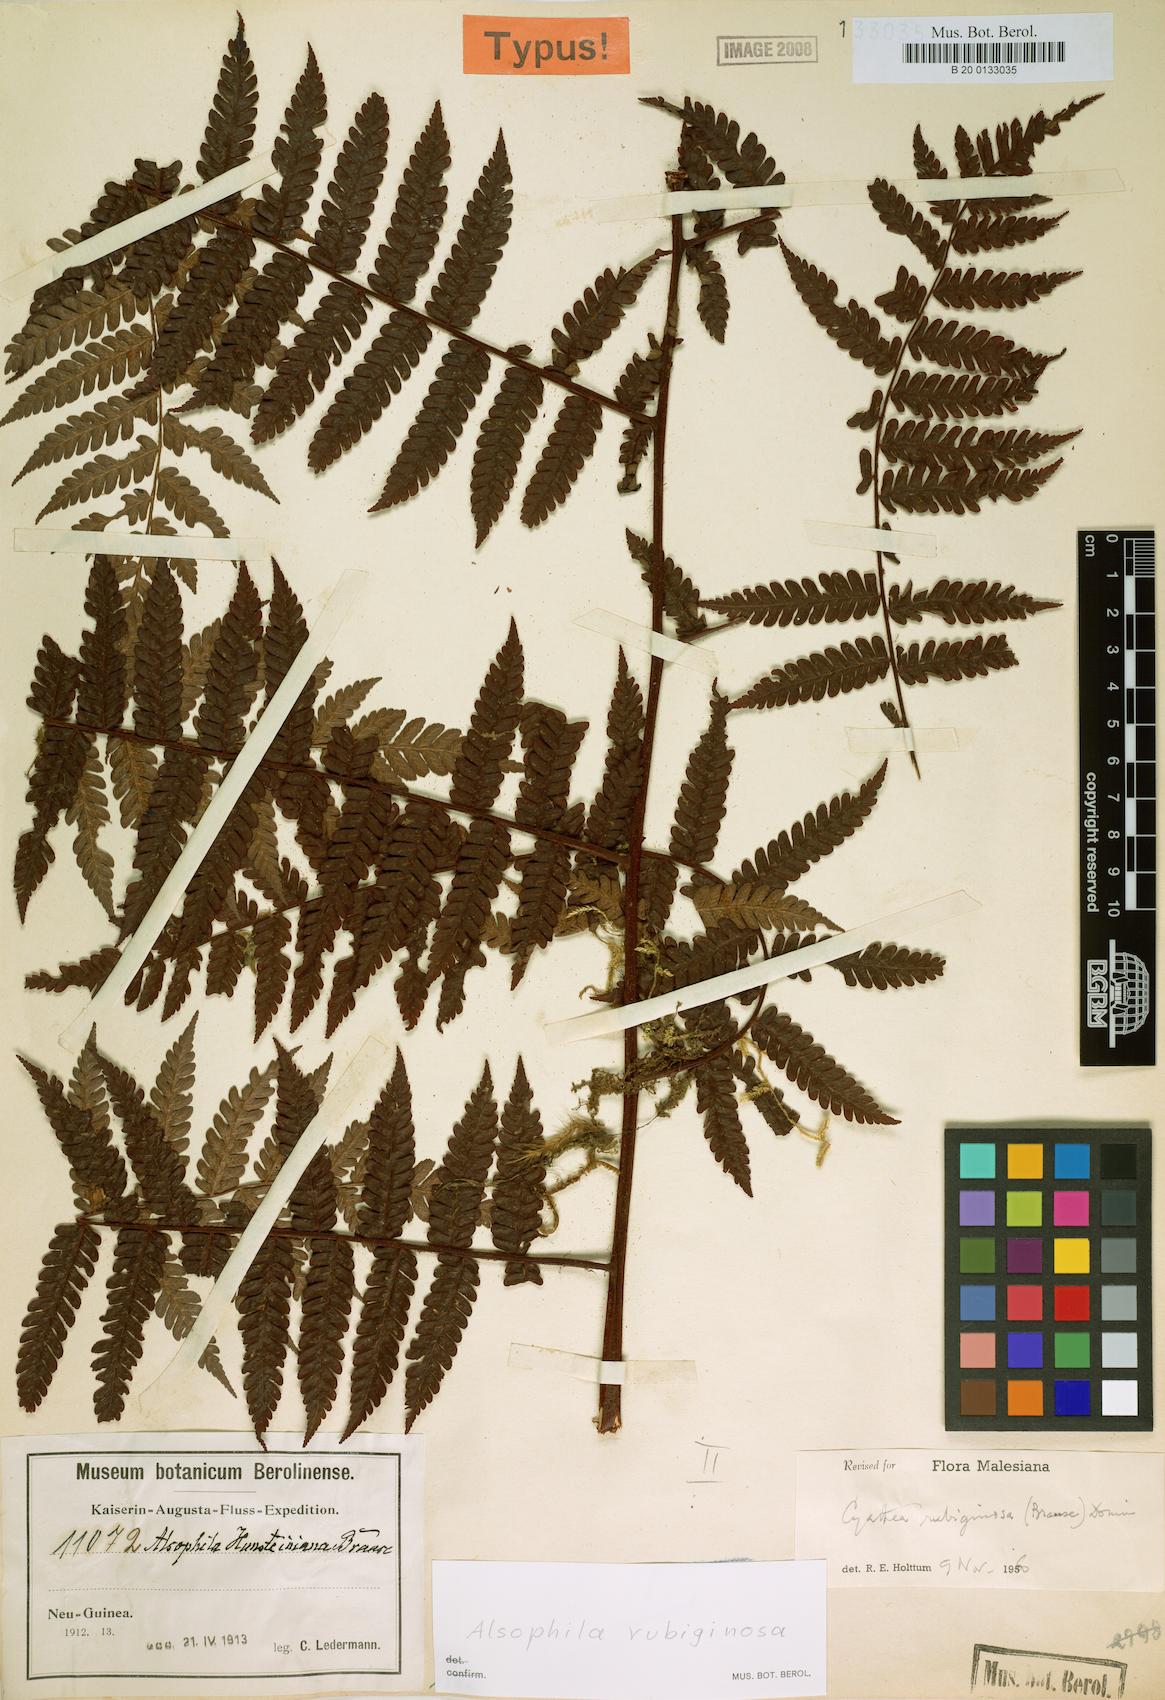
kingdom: Plantae
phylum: Tracheophyta
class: Polypodiopsida
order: Cyatheales
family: Cyatheaceae
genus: Alsophila
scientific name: Alsophila rubiginosa
